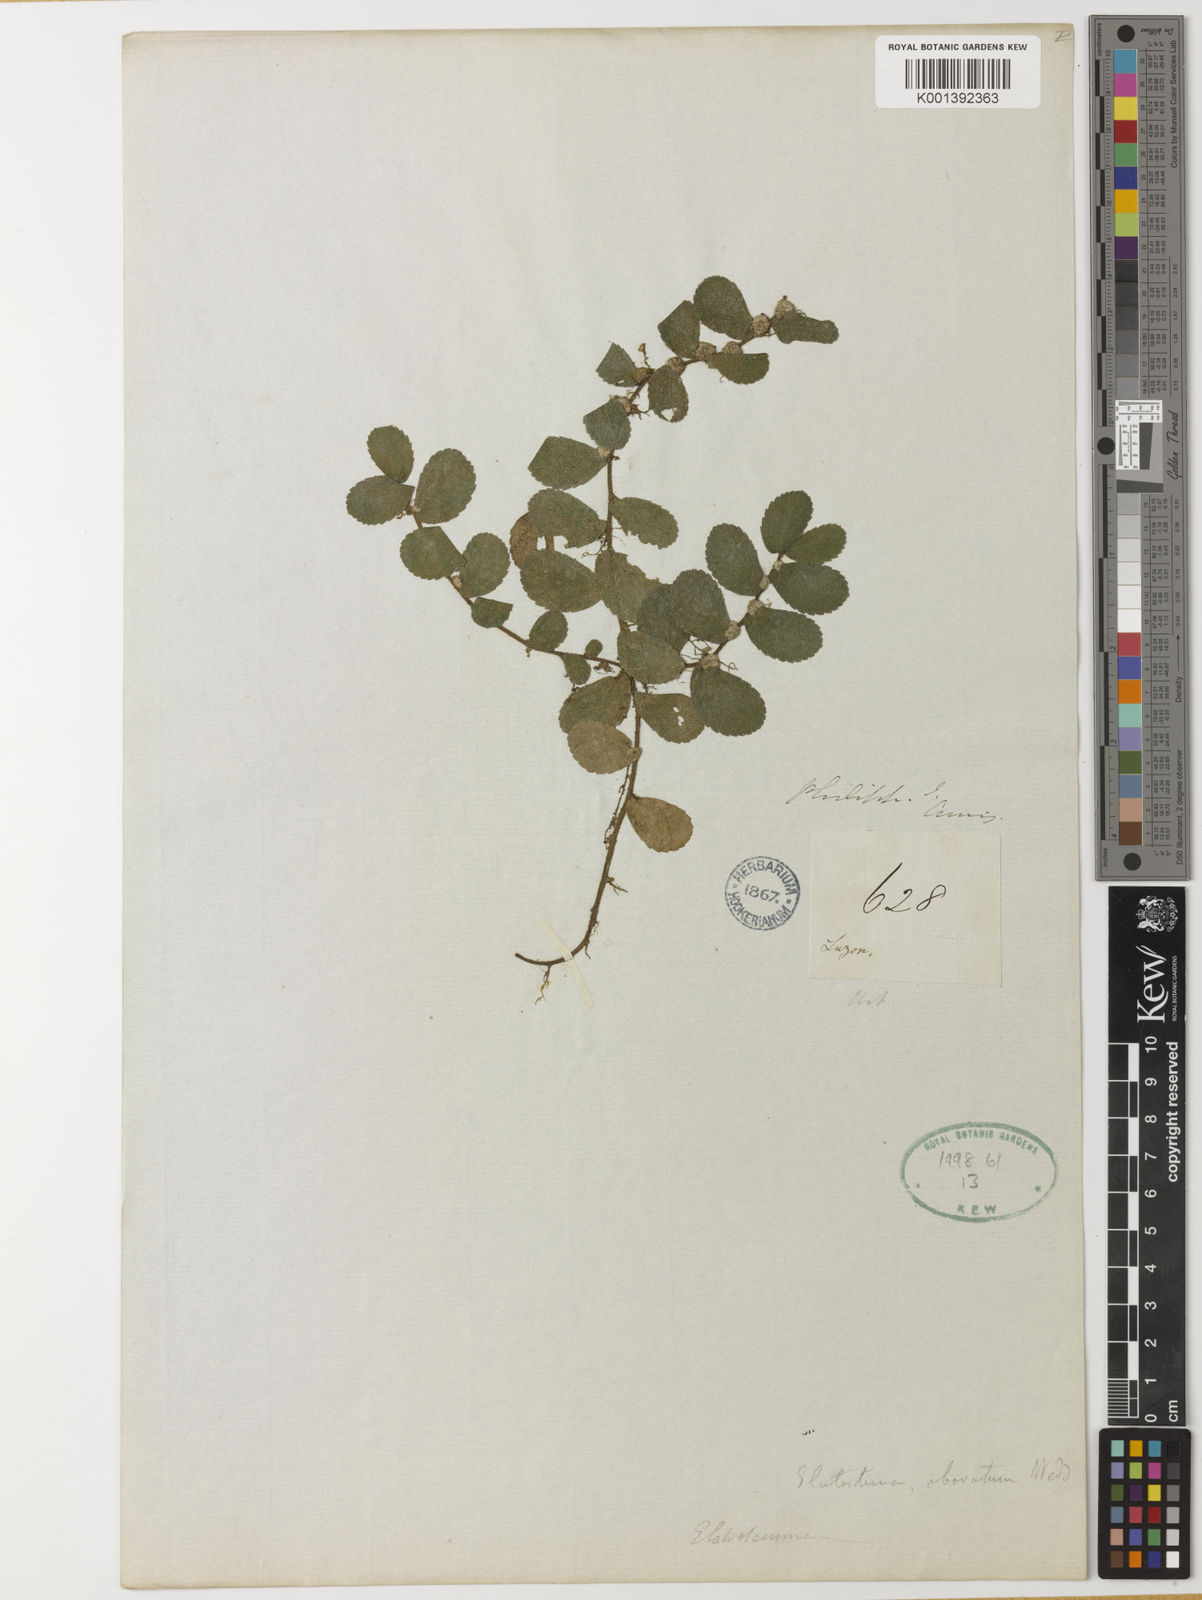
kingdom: Plantae
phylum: Tracheophyta
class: Magnoliopsida
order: Rosales
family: Urticaceae
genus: Elatostema
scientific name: Elatostema obovatum
